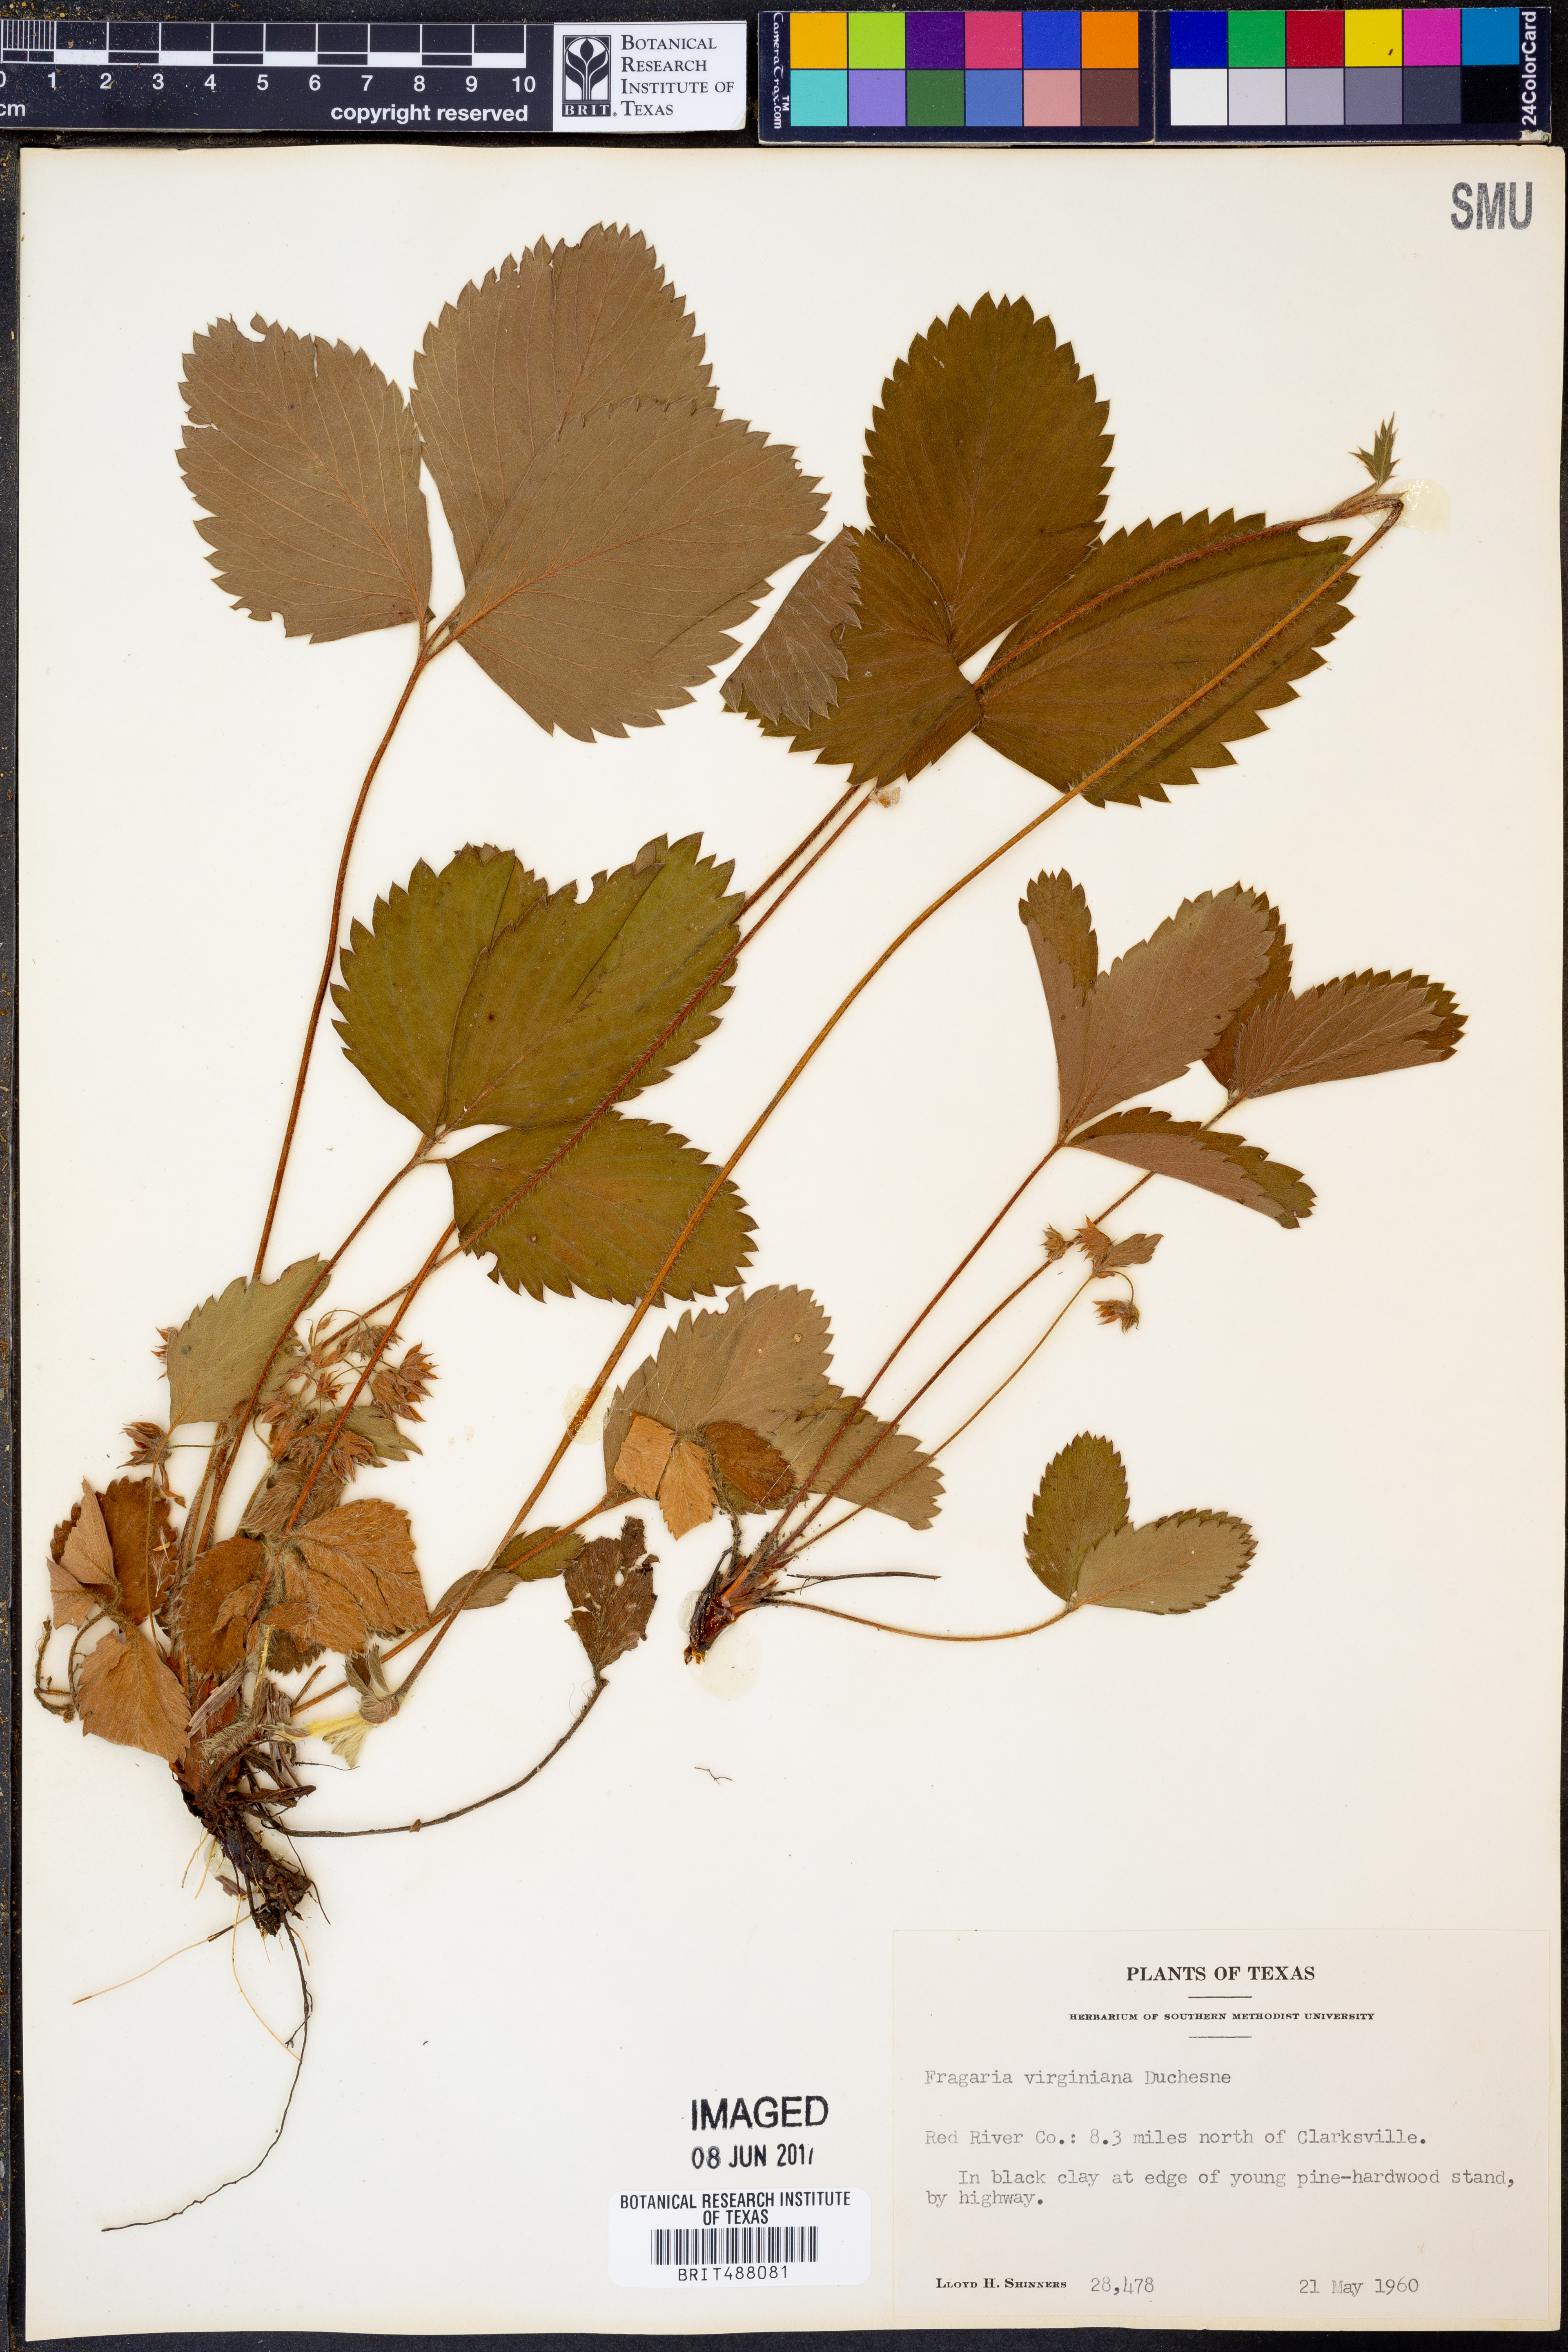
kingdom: Plantae
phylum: Tracheophyta
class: Magnoliopsida
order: Rosales
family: Rosaceae
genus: Fragaria
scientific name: Fragaria virginiana
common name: Thickleaved wild strawberry
